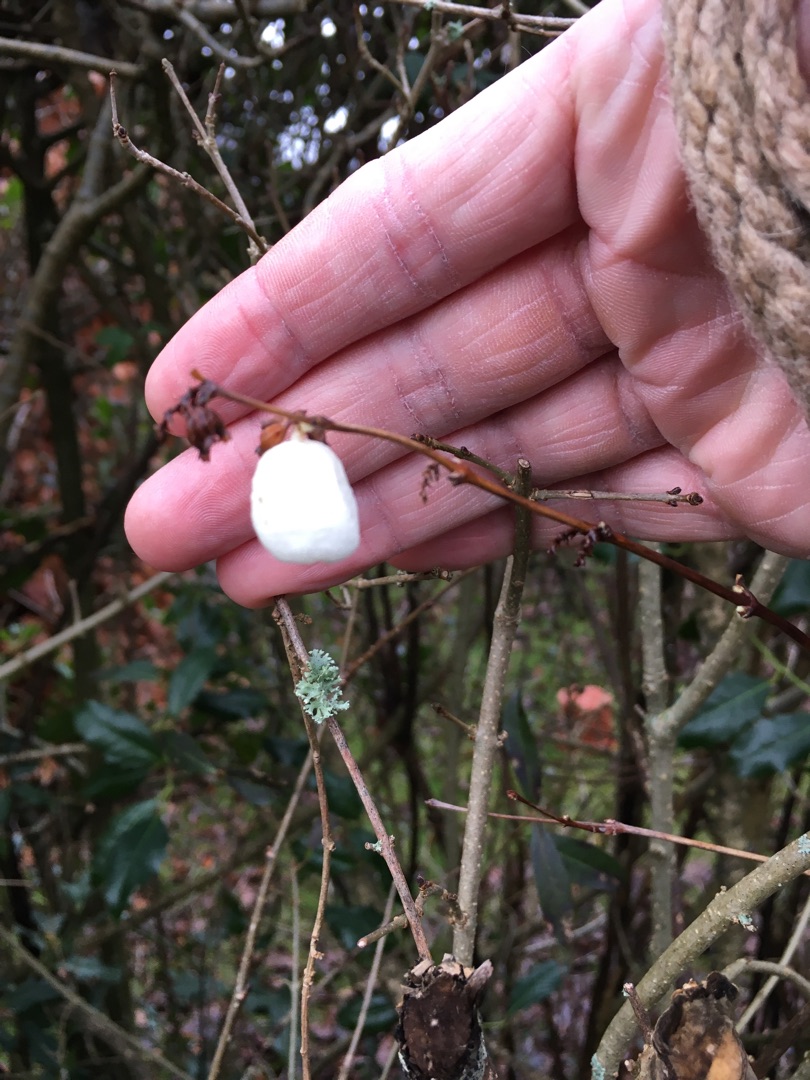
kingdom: Plantae
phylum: Tracheophyta
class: Magnoliopsida
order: Dipsacales
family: Caprifoliaceae
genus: Symphoricarpos
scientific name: Symphoricarpos albus
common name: Almindelig snebær
